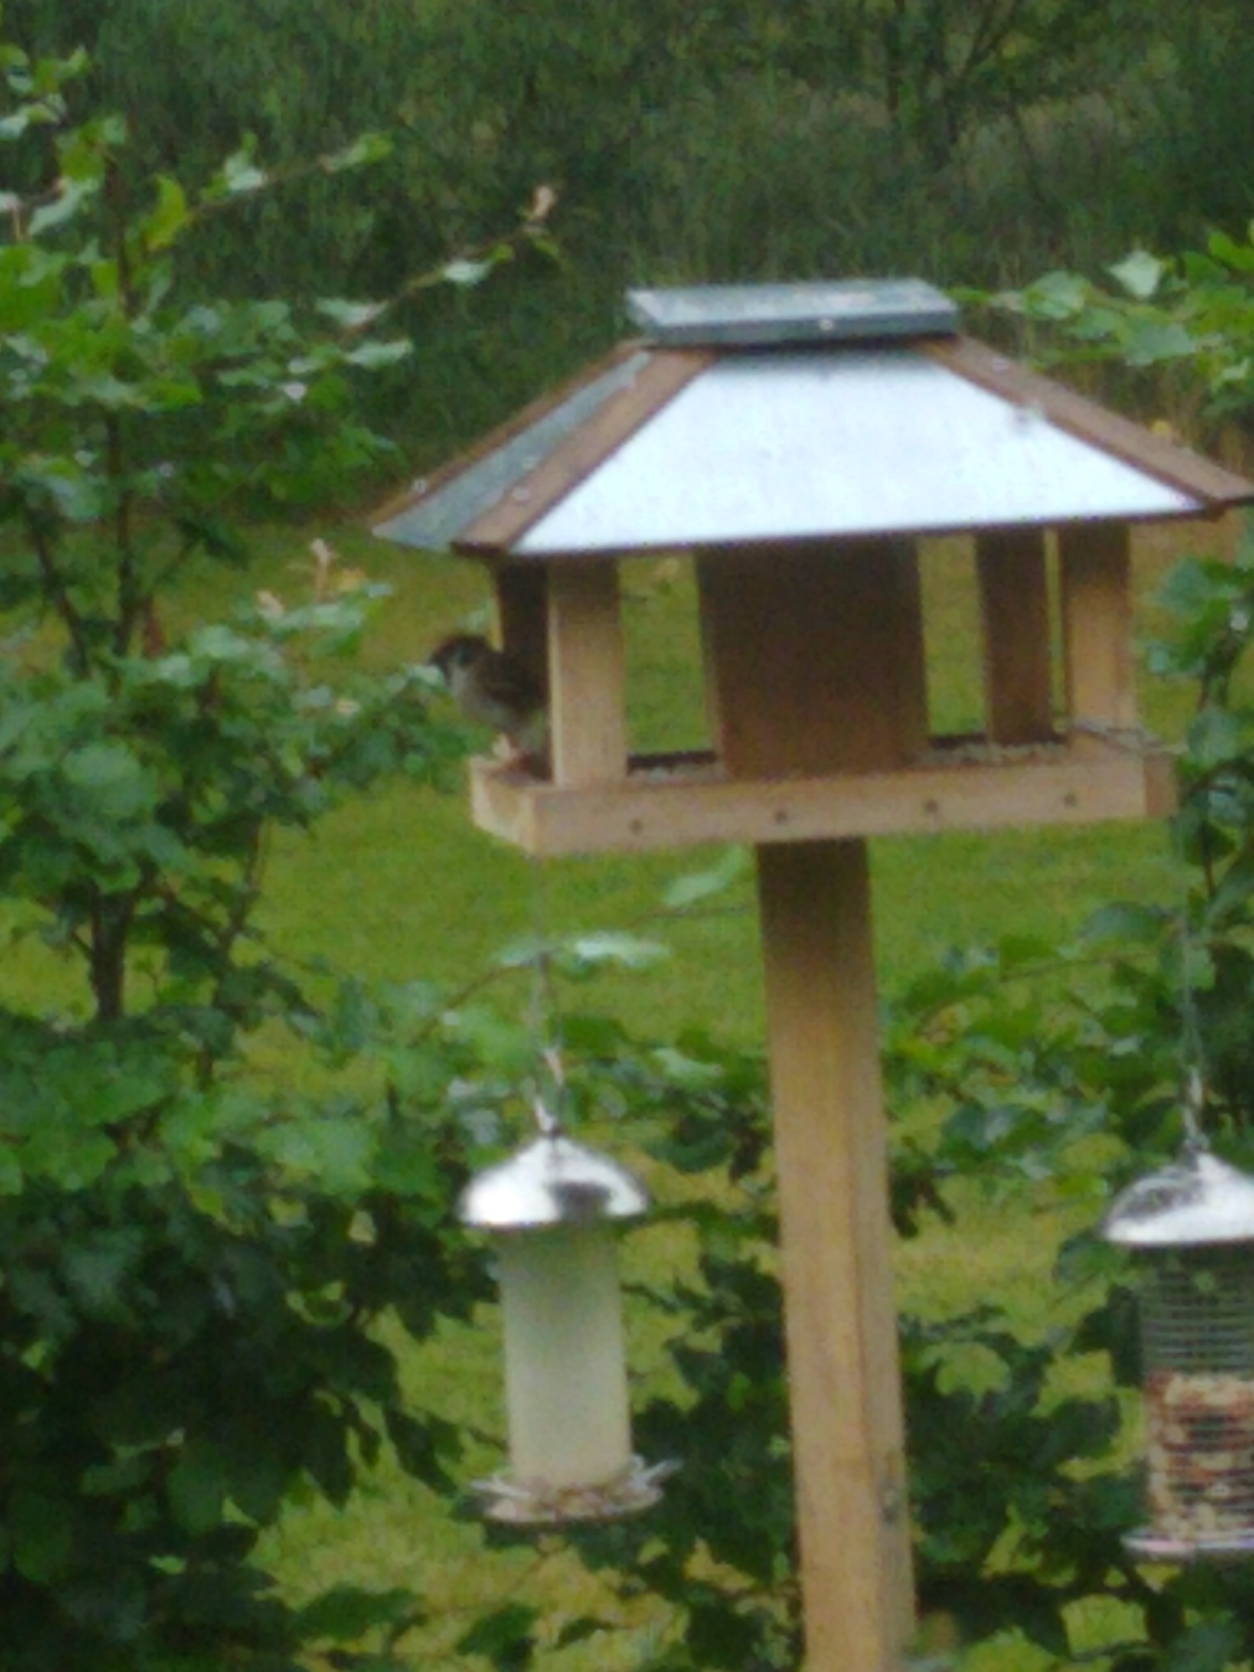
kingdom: Animalia
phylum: Chordata
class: Aves
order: Passeriformes
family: Passeridae
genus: Passer
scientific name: Passer montanus
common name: Skovspurv
